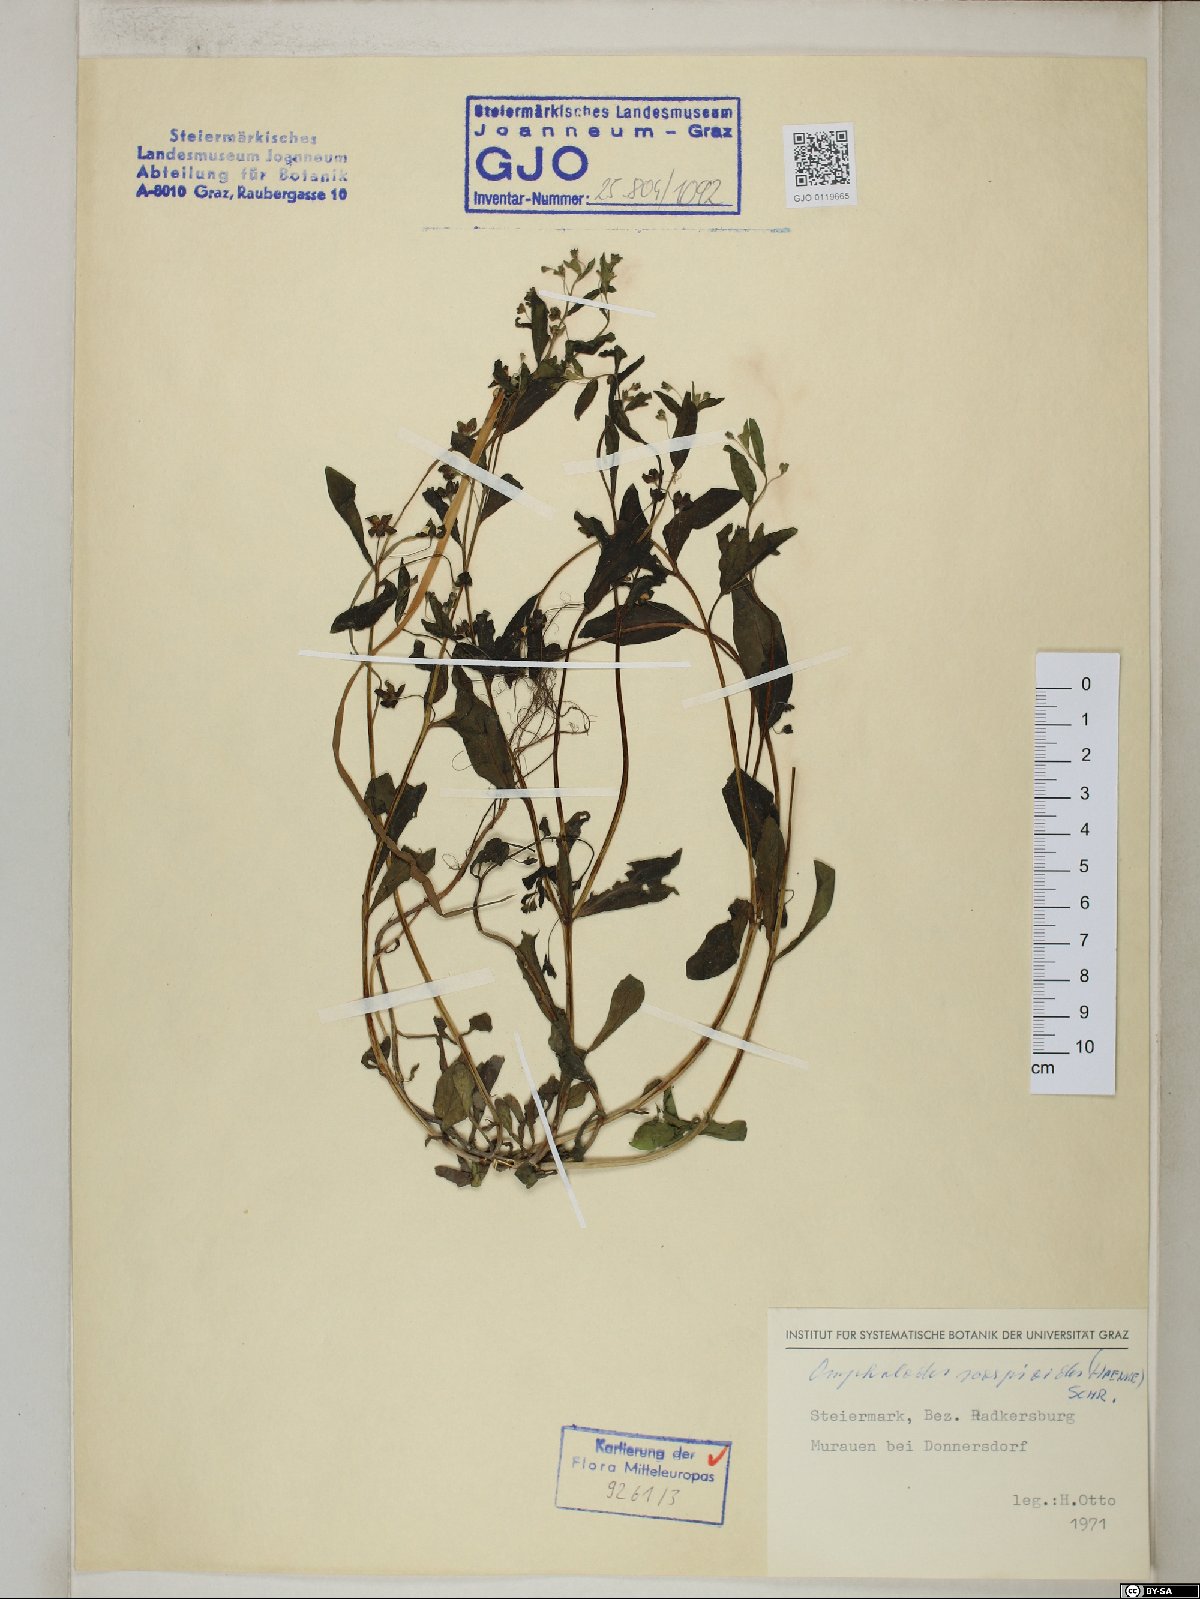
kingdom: Plantae
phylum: Tracheophyta
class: Magnoliopsida
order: Boraginales
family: Boraginaceae
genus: Memoremea
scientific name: Memoremea scorpioides
